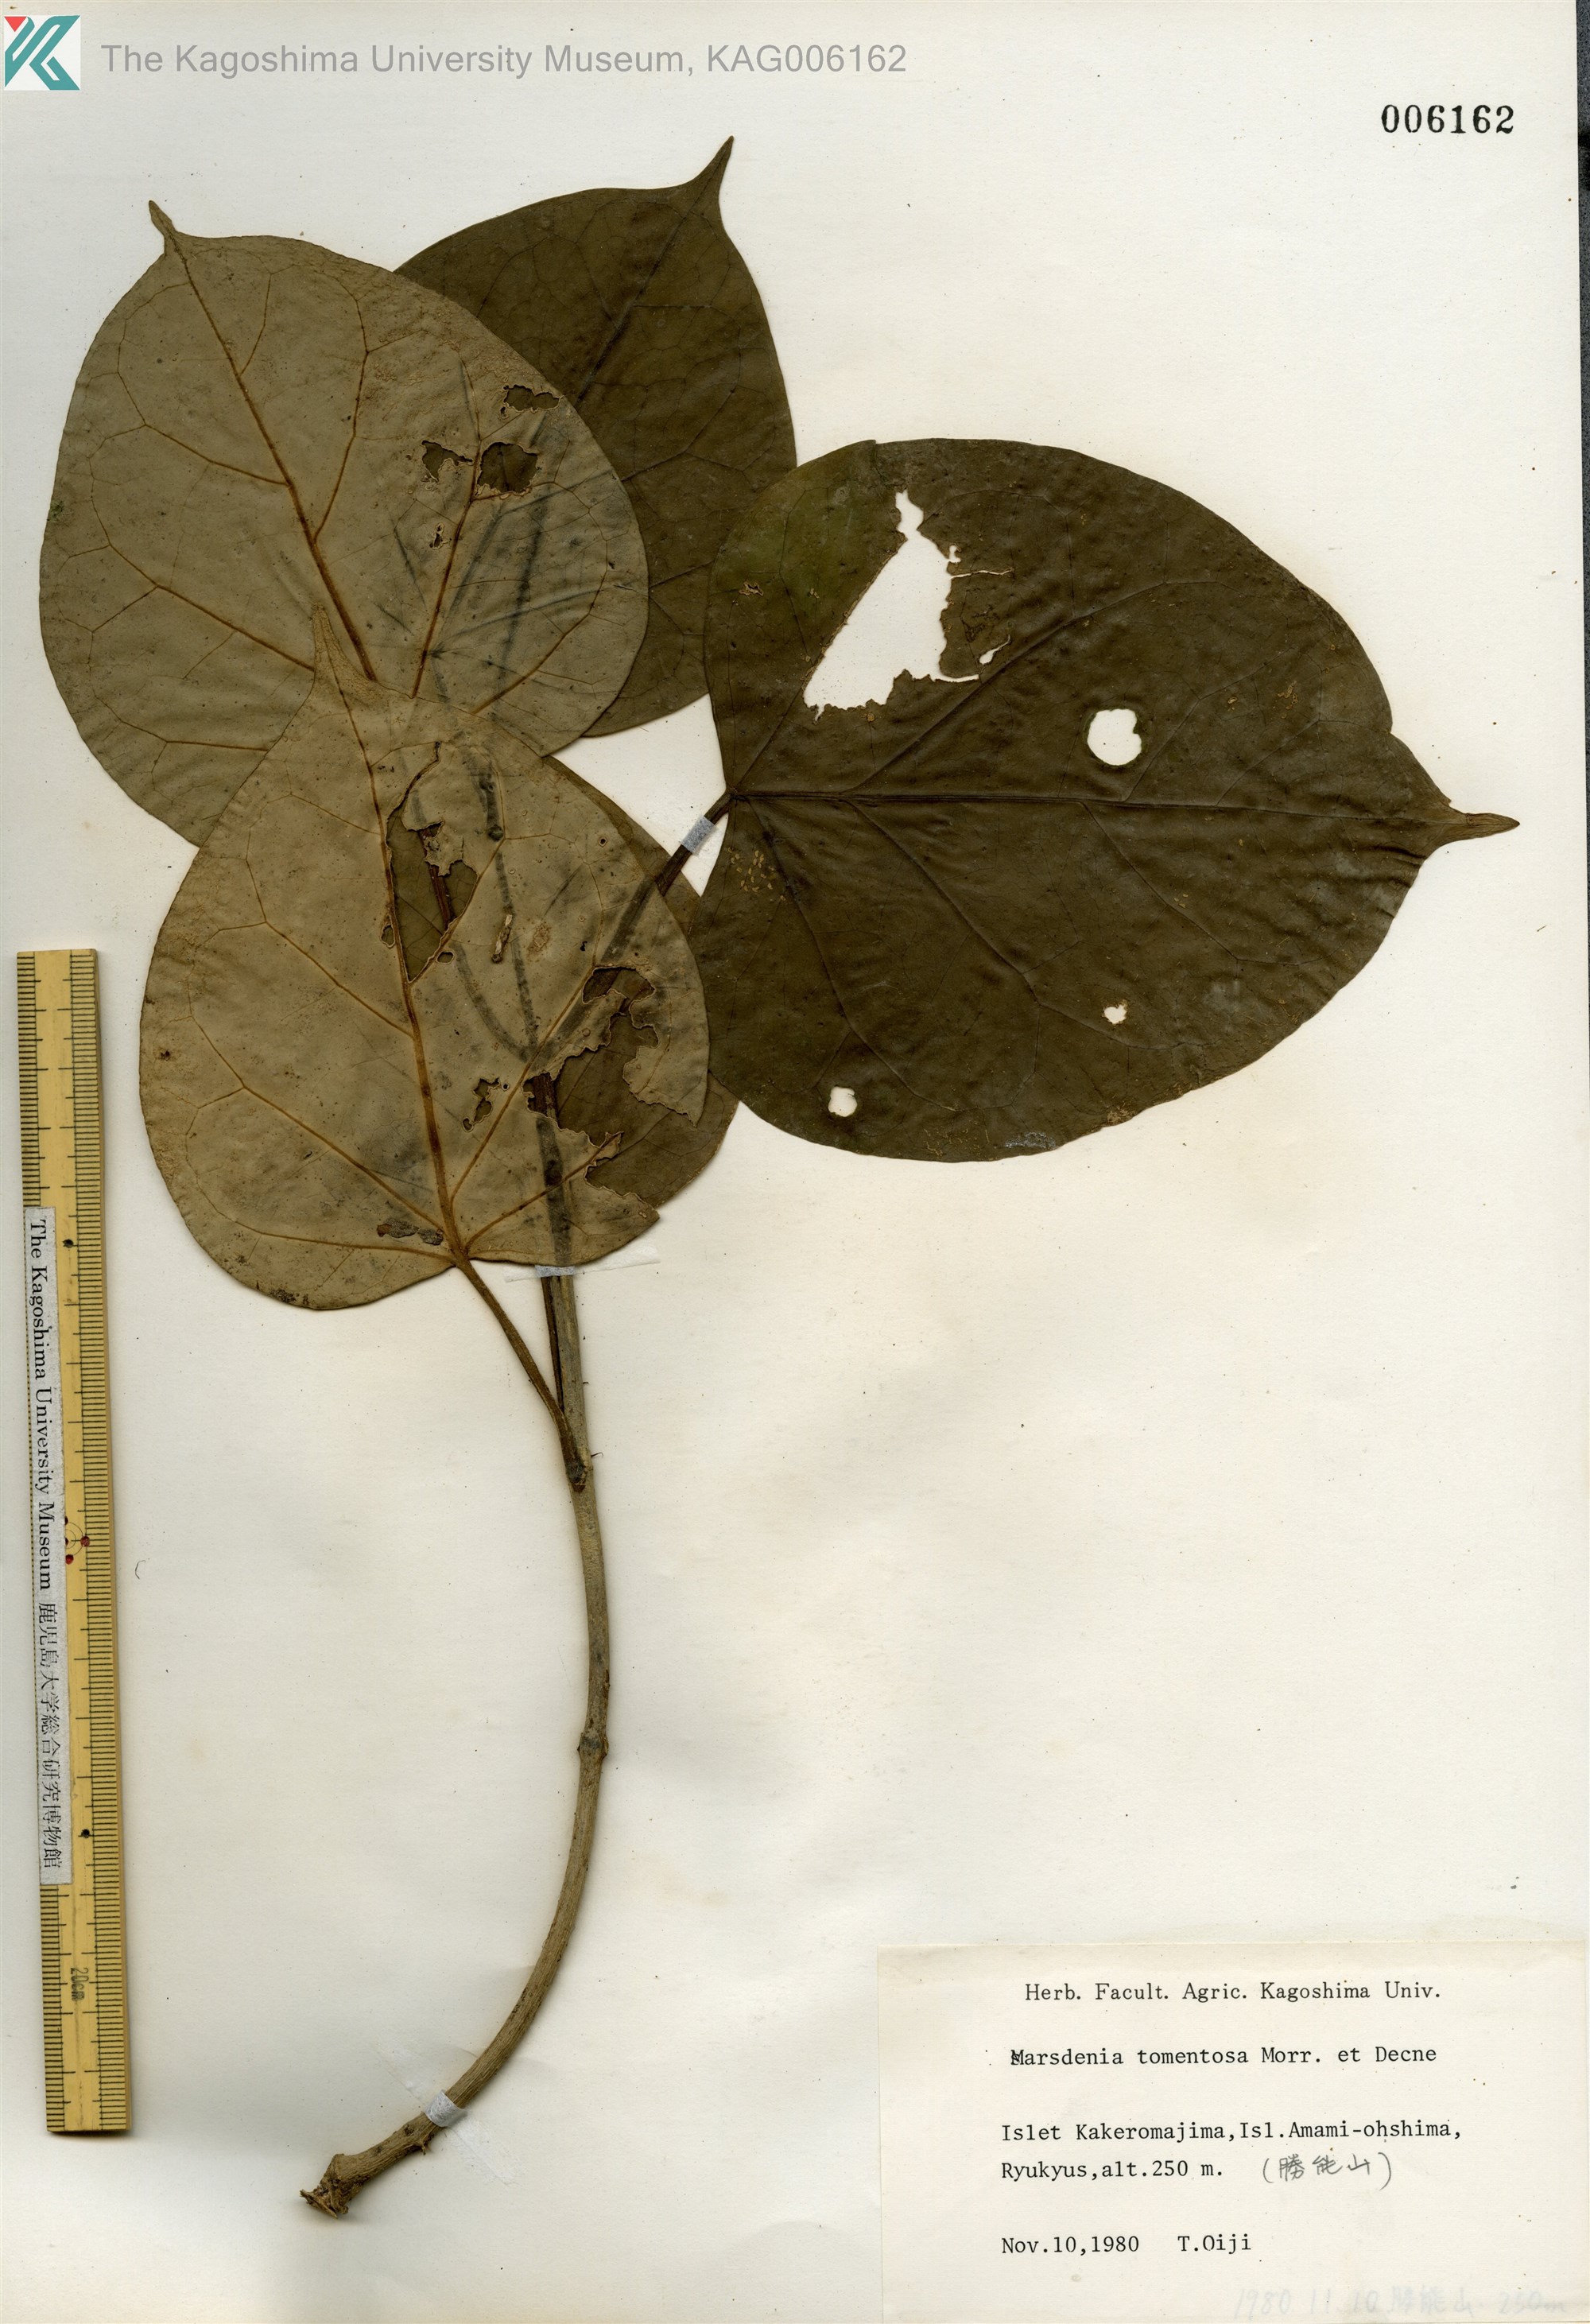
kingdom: Plantae
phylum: Tracheophyta
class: Magnoliopsida
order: Gentianales
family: Apocynaceae
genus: Sinomarsdenia
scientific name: Sinomarsdenia tomentosa
